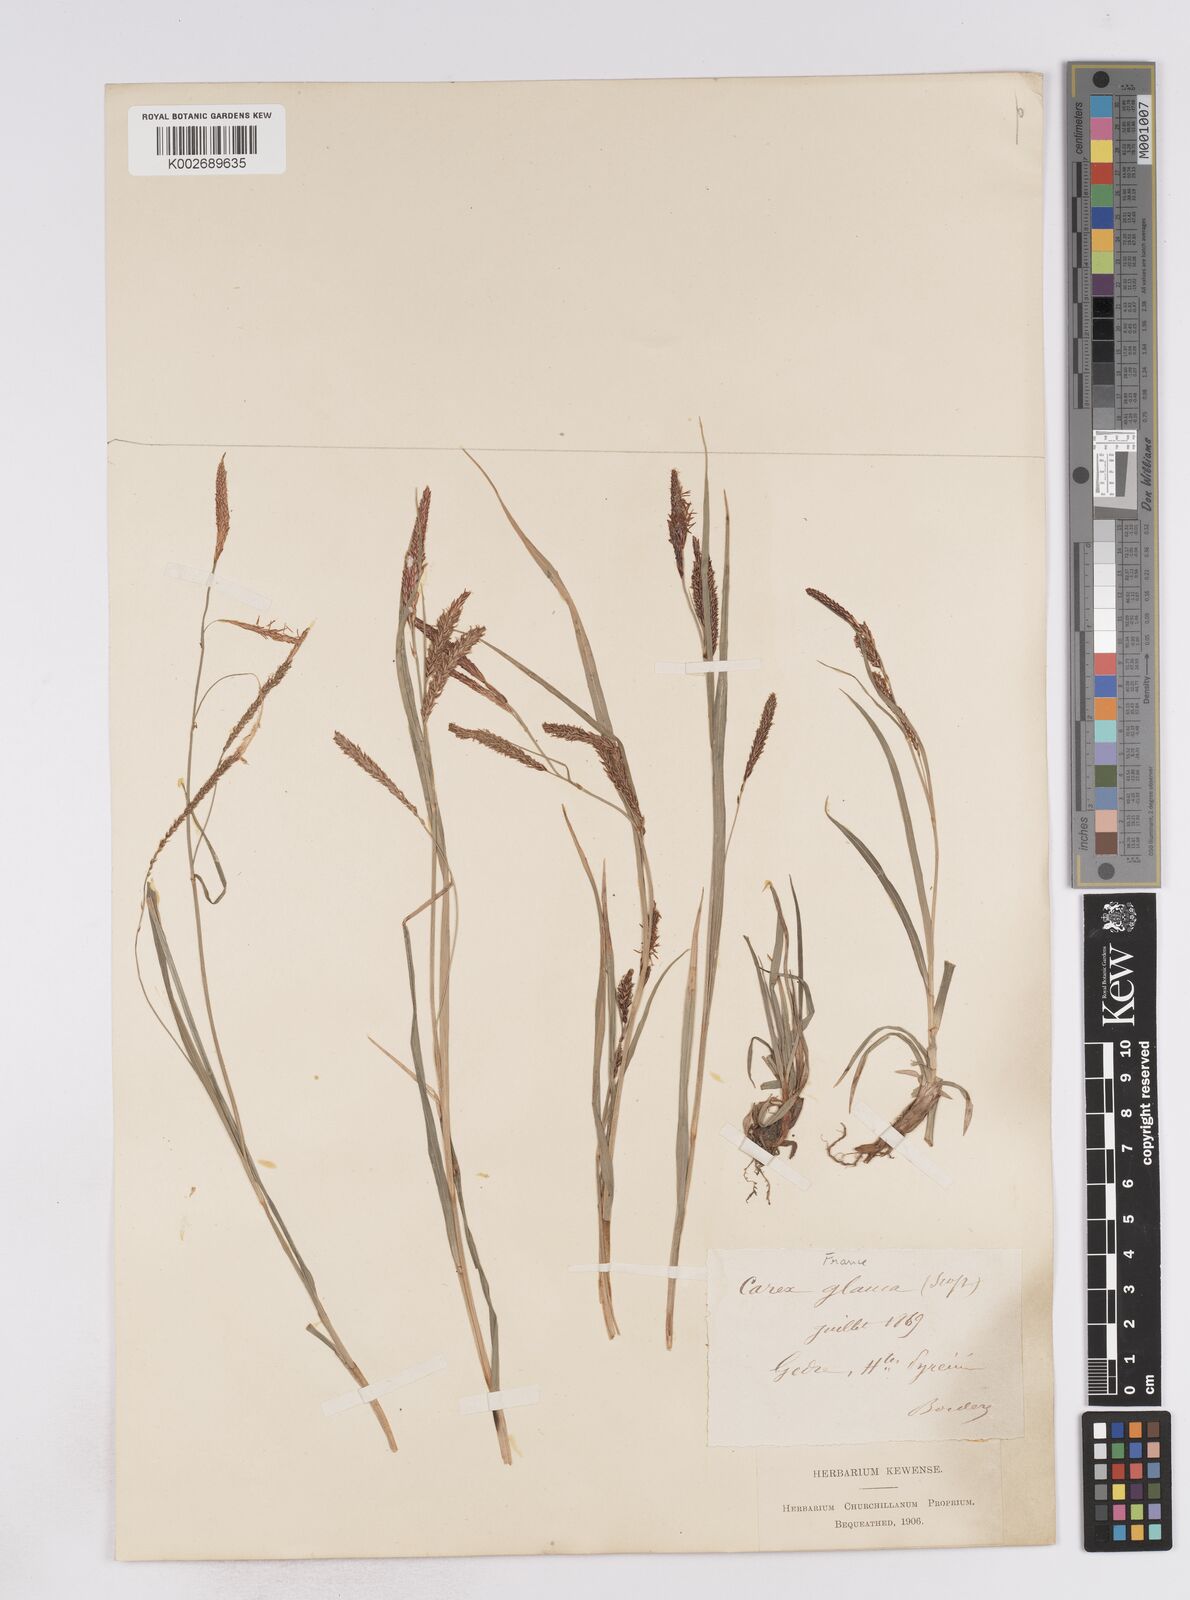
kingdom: Plantae
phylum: Tracheophyta
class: Liliopsida
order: Poales
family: Cyperaceae
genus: Carex
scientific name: Carex flacca
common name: Glaucous sedge
